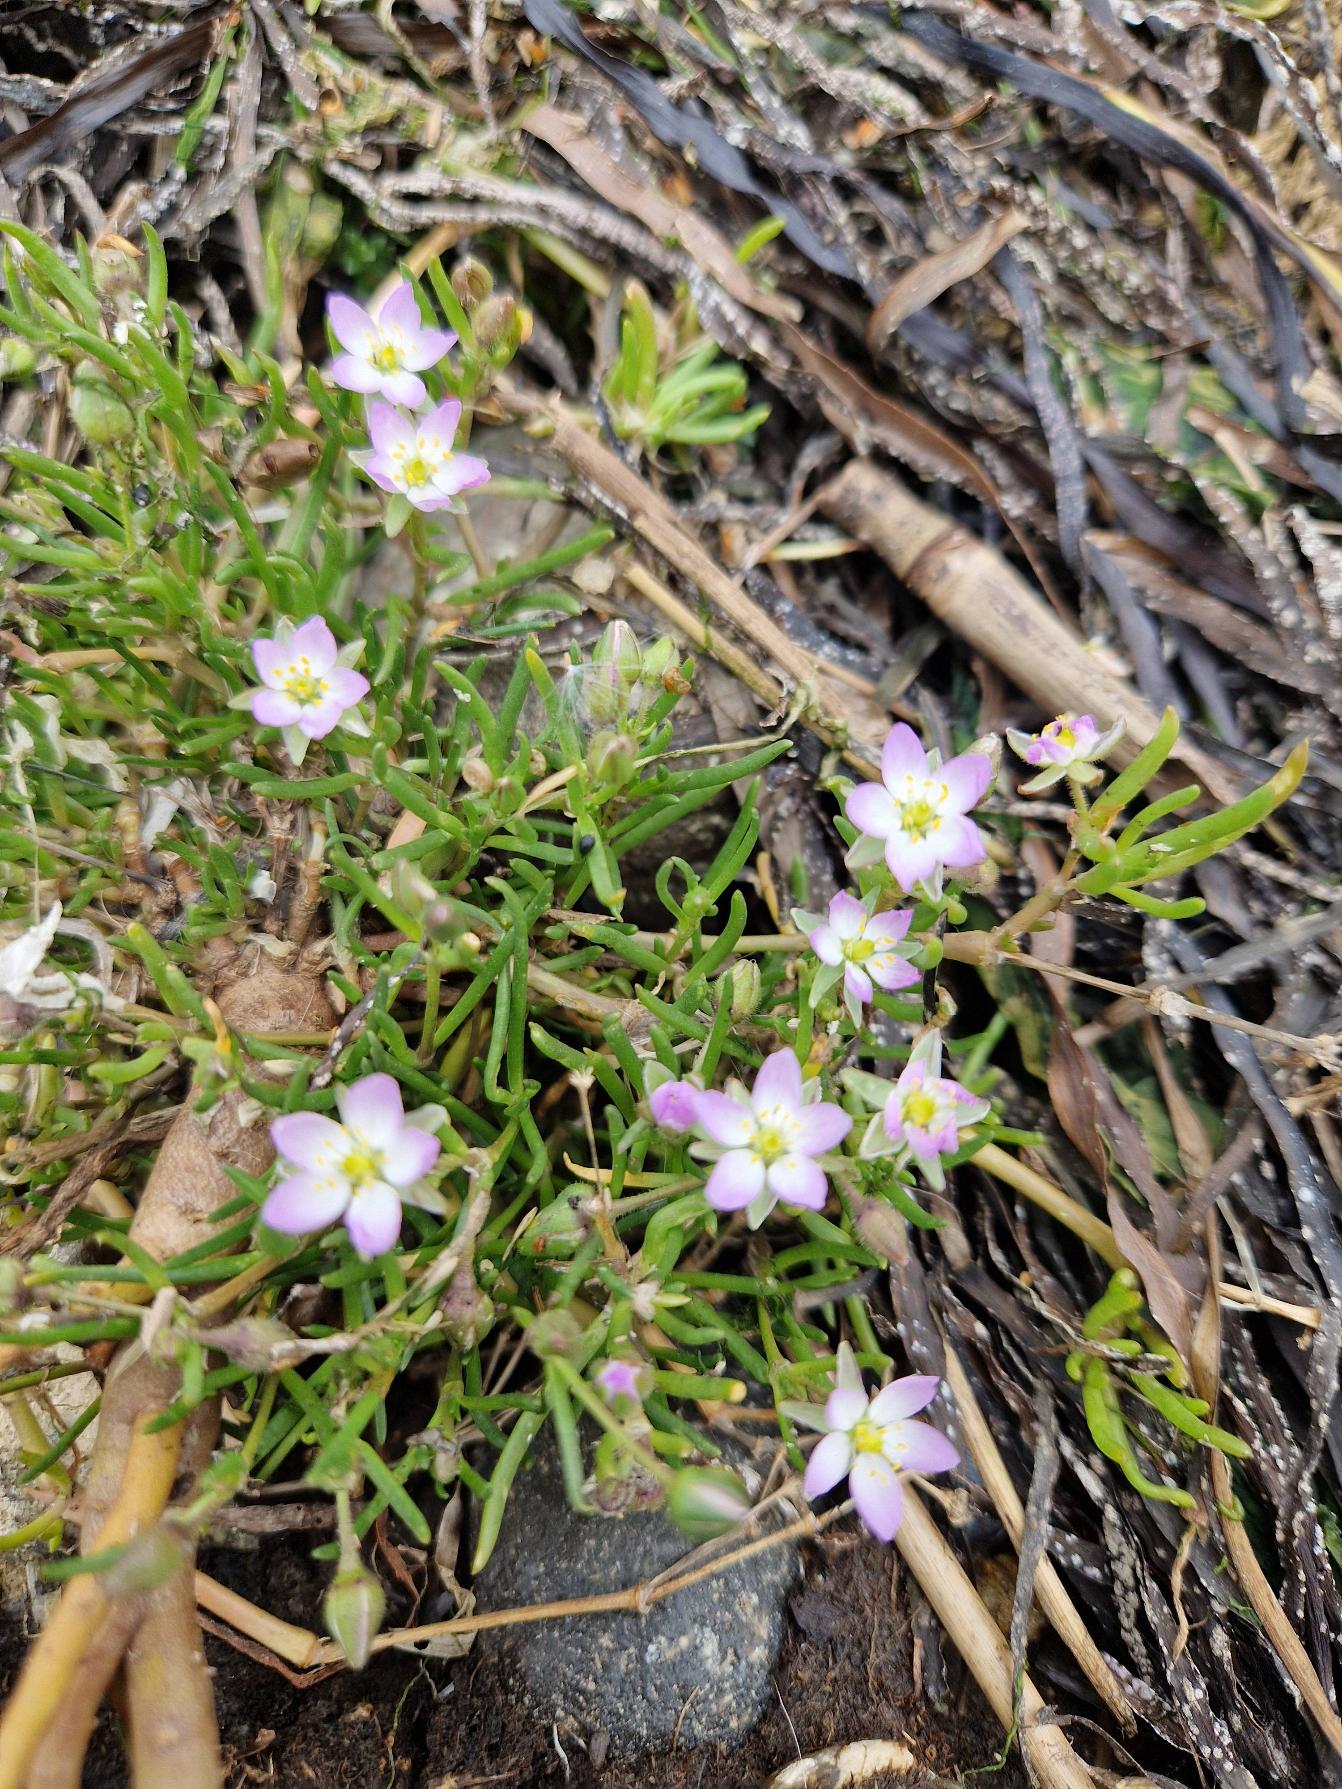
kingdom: Plantae
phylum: Tracheophyta
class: Magnoliopsida
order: Caryophyllales
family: Caryophyllaceae
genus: Spergularia
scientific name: Spergularia media
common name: Vingefrøet hindeknæ
